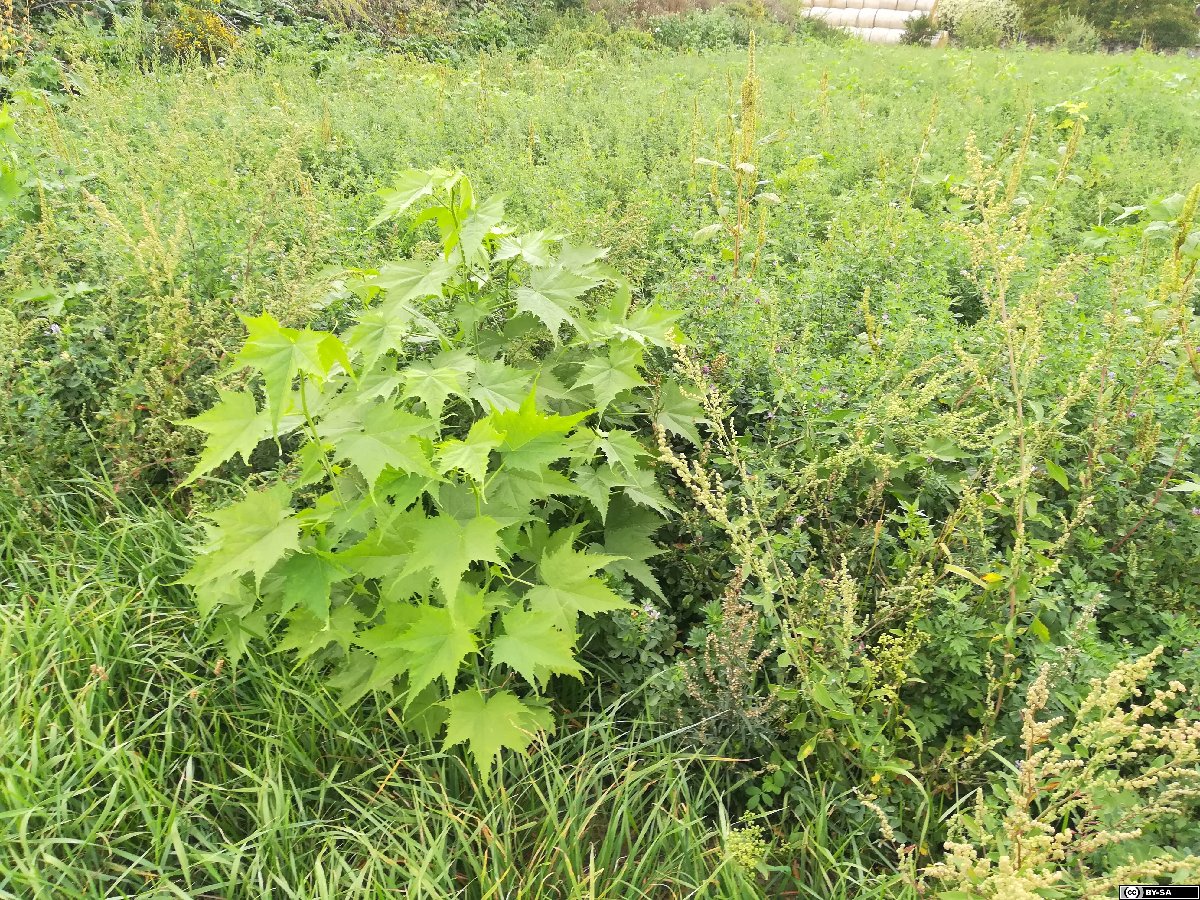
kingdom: Plantae
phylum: Tracheophyta
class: Magnoliopsida
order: Malvales
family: Malvaceae
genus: Ripariosida
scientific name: Ripariosida hermaphrodita
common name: Virginia fanpetals
